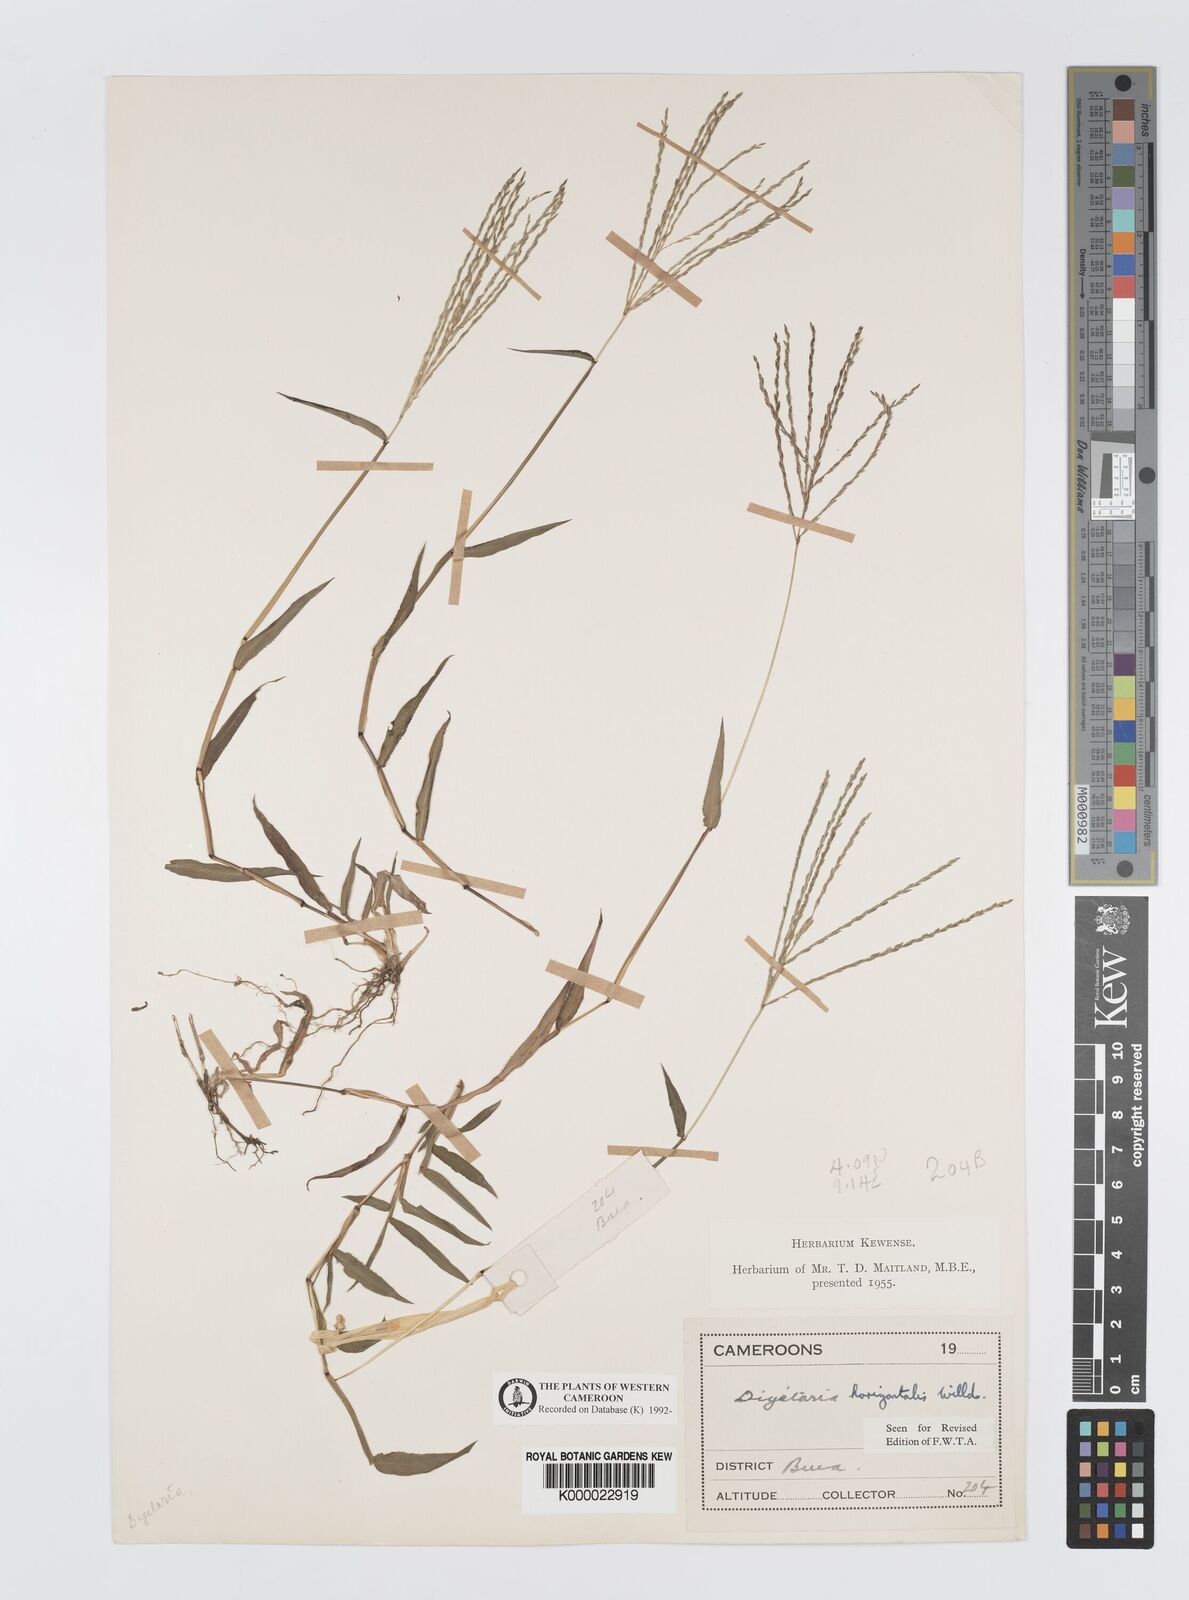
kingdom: Plantae
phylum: Tracheophyta
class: Liliopsida
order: Poales
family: Poaceae
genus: Digitaria
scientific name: Digitaria horizontalis
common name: Jamaican crabgrass
